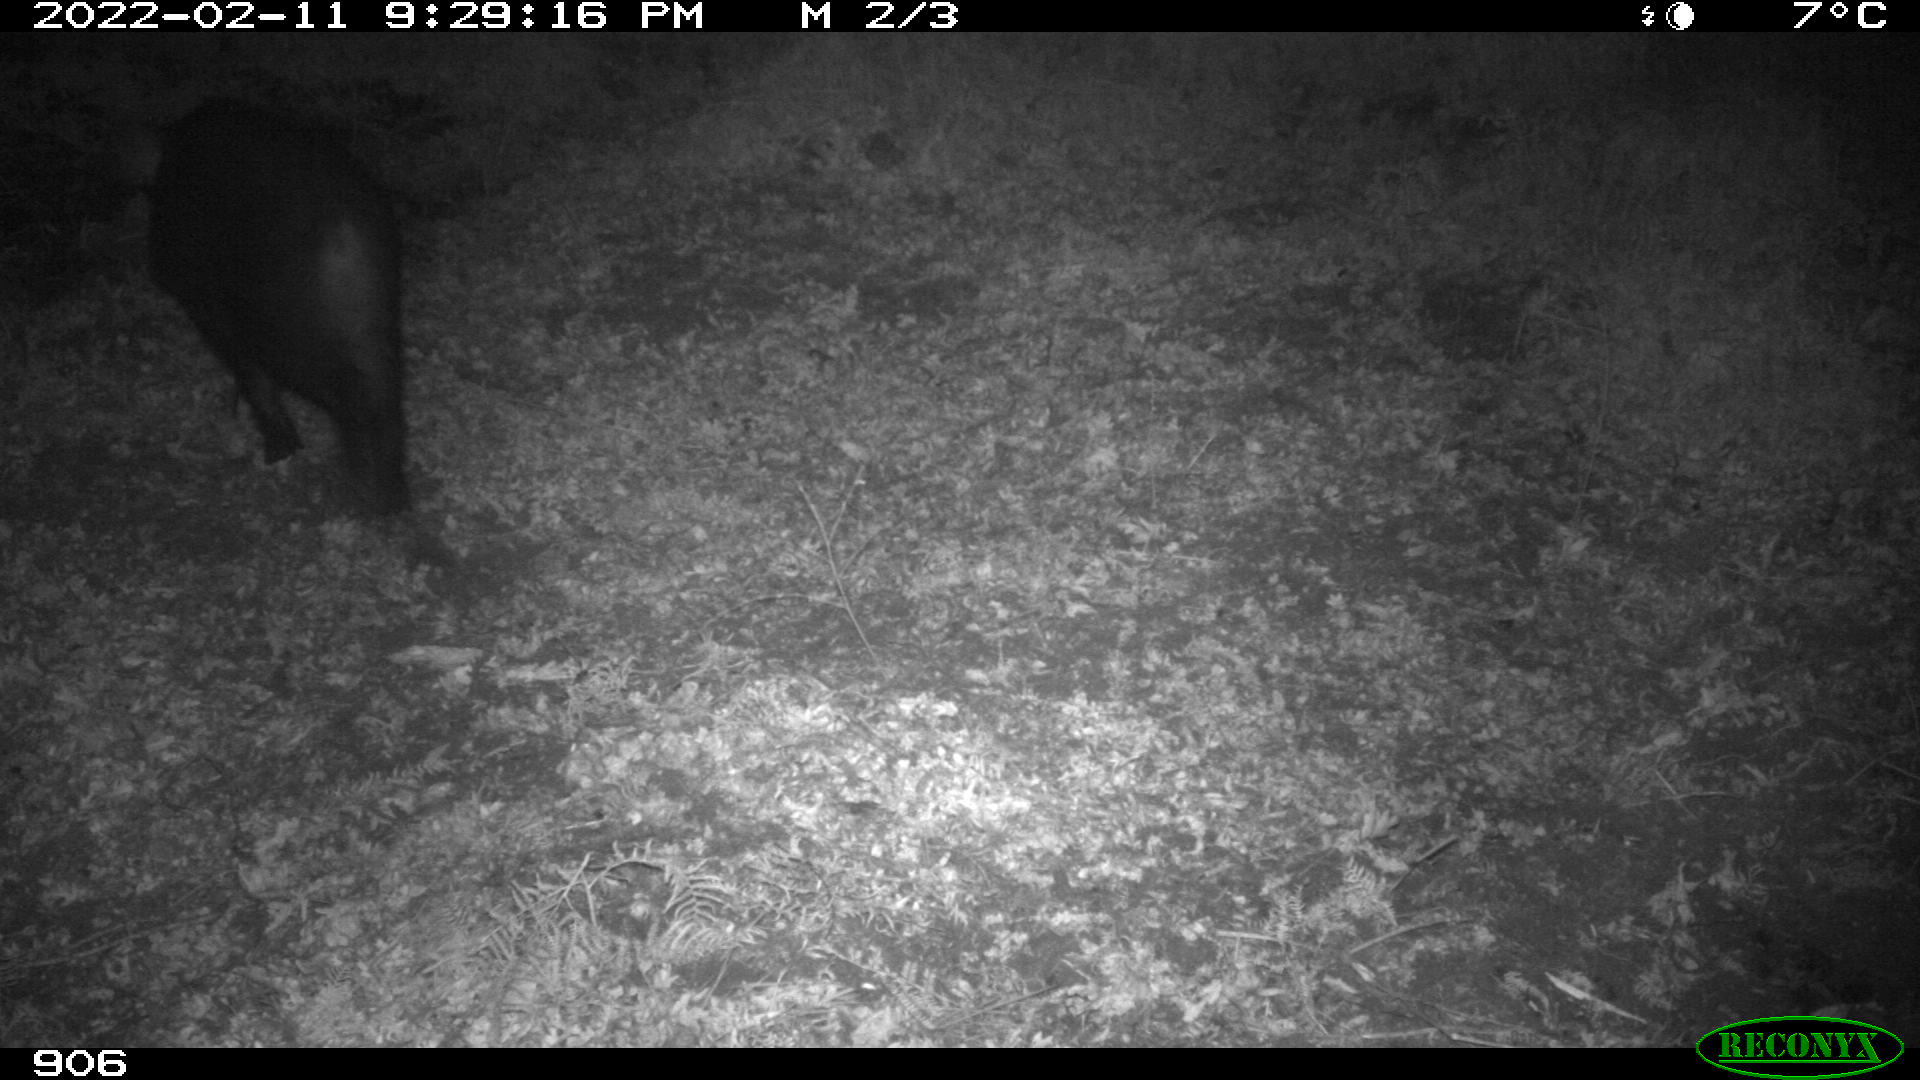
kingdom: Animalia
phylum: Chordata
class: Mammalia
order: Artiodactyla
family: Suidae
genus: Sus
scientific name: Sus scrofa
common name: Wild boar
